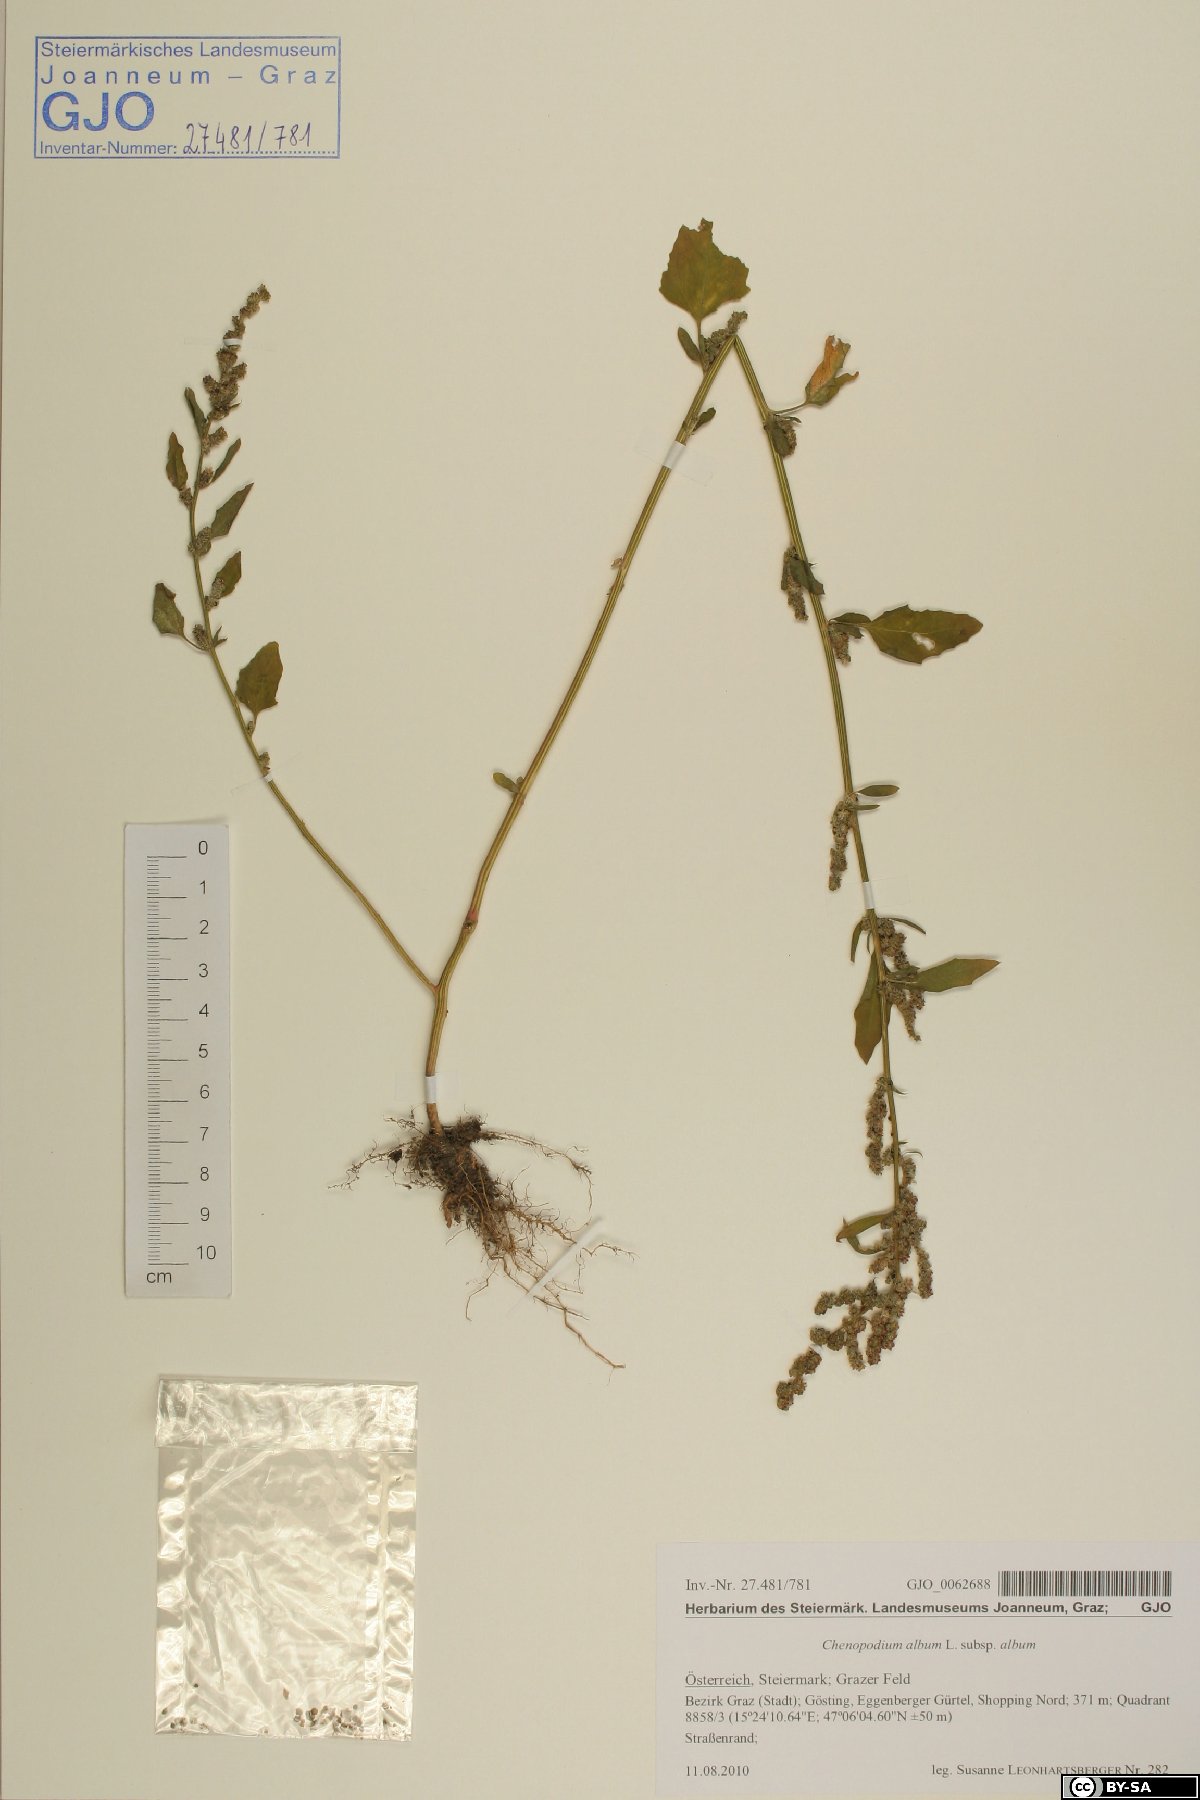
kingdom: Plantae
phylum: Tracheophyta
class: Magnoliopsida
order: Caryophyllales
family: Amaranthaceae
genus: Chenopodium
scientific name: Chenopodium album
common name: Fat-hen
